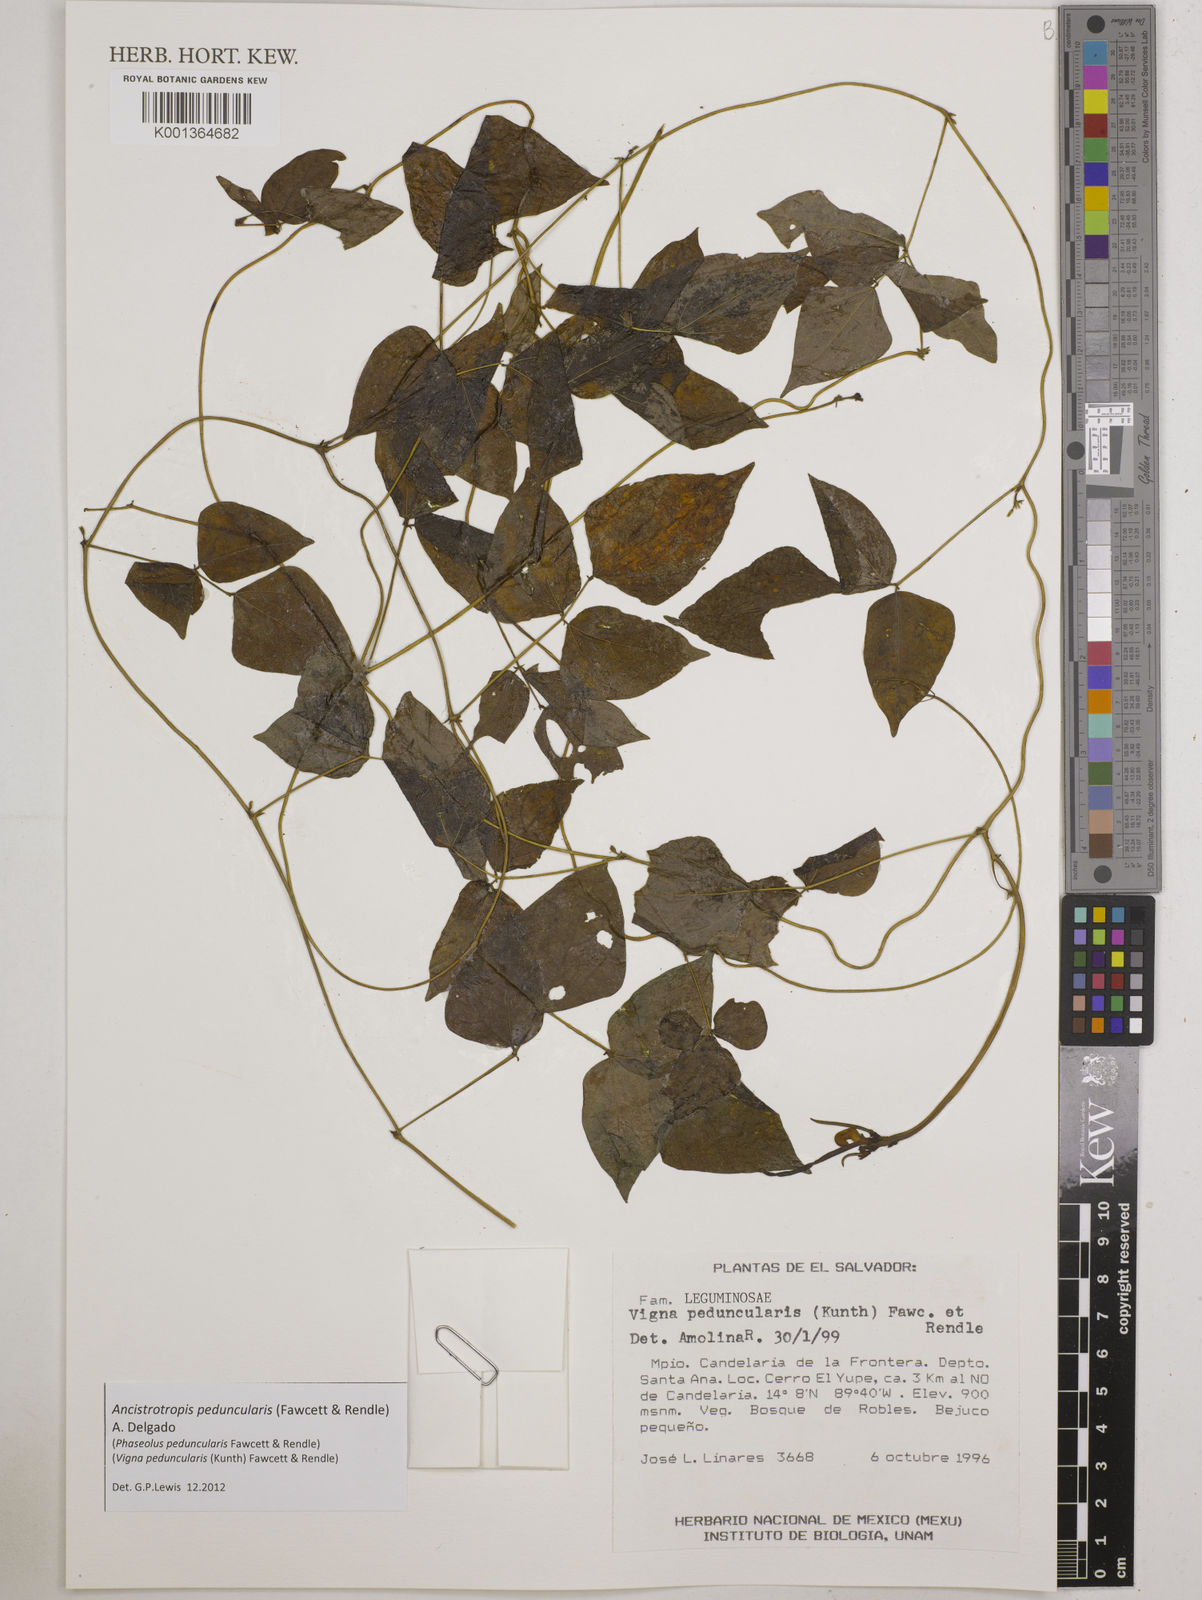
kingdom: Plantae
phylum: Tracheophyta
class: Magnoliopsida
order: Fabales
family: Fabaceae
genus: Ancistrotropis
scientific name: Ancistrotropis peduncularis
